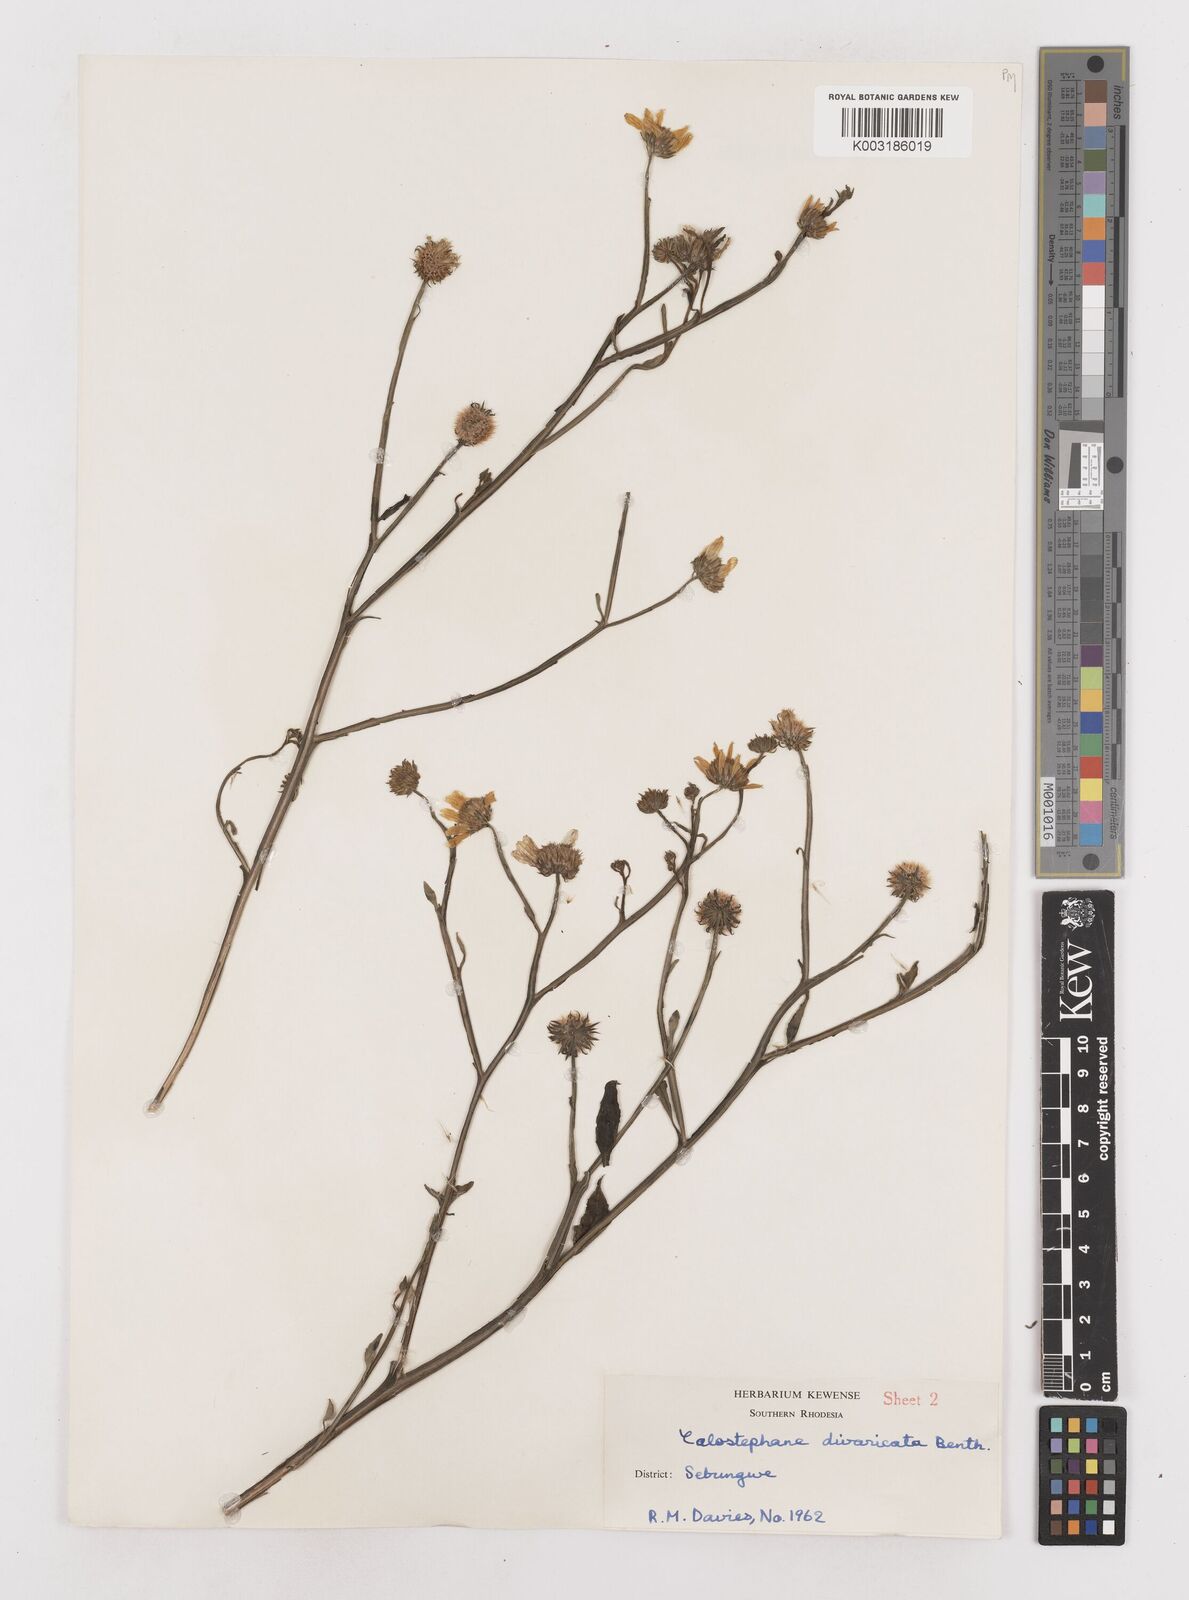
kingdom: Plantae
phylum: Tracheophyta
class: Magnoliopsida
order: Asterales
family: Asteraceae
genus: Calostephane
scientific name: Calostephane divaricata
